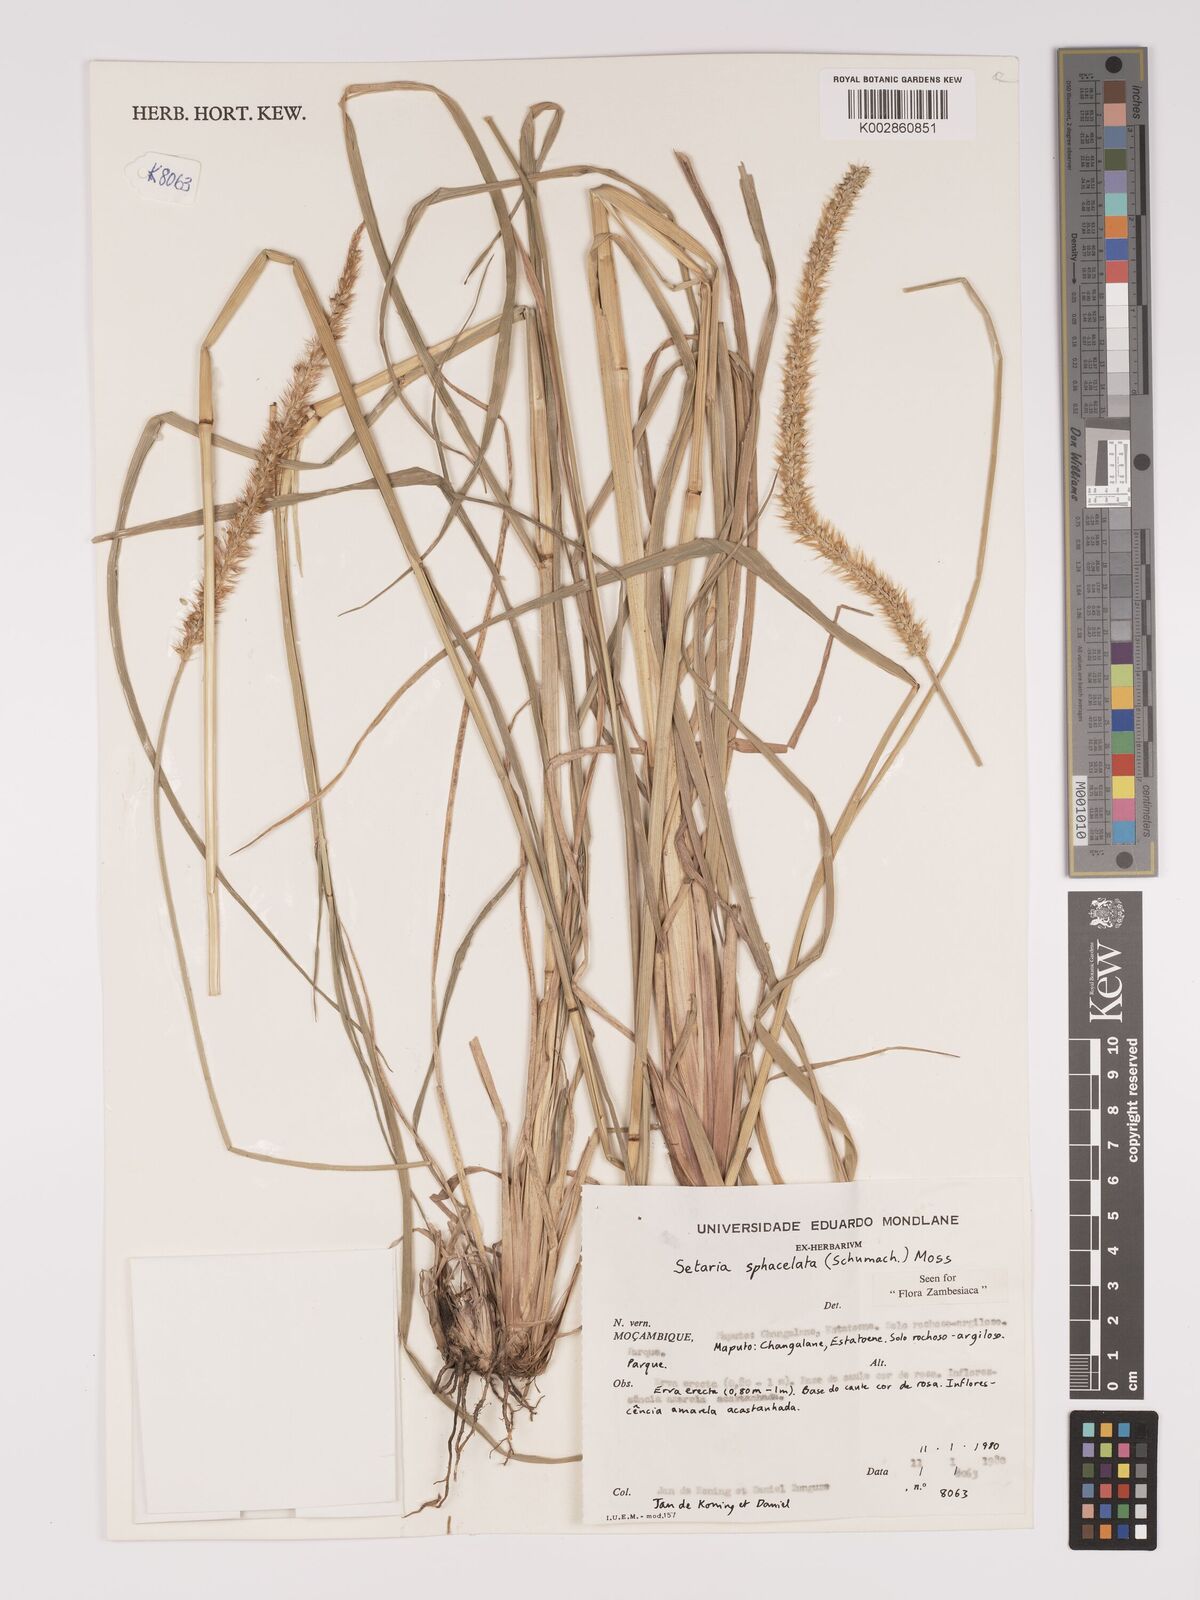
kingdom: Plantae
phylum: Tracheophyta
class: Liliopsida
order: Poales
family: Poaceae
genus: Setaria
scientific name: Setaria sphacelata
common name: African bristlegrass
